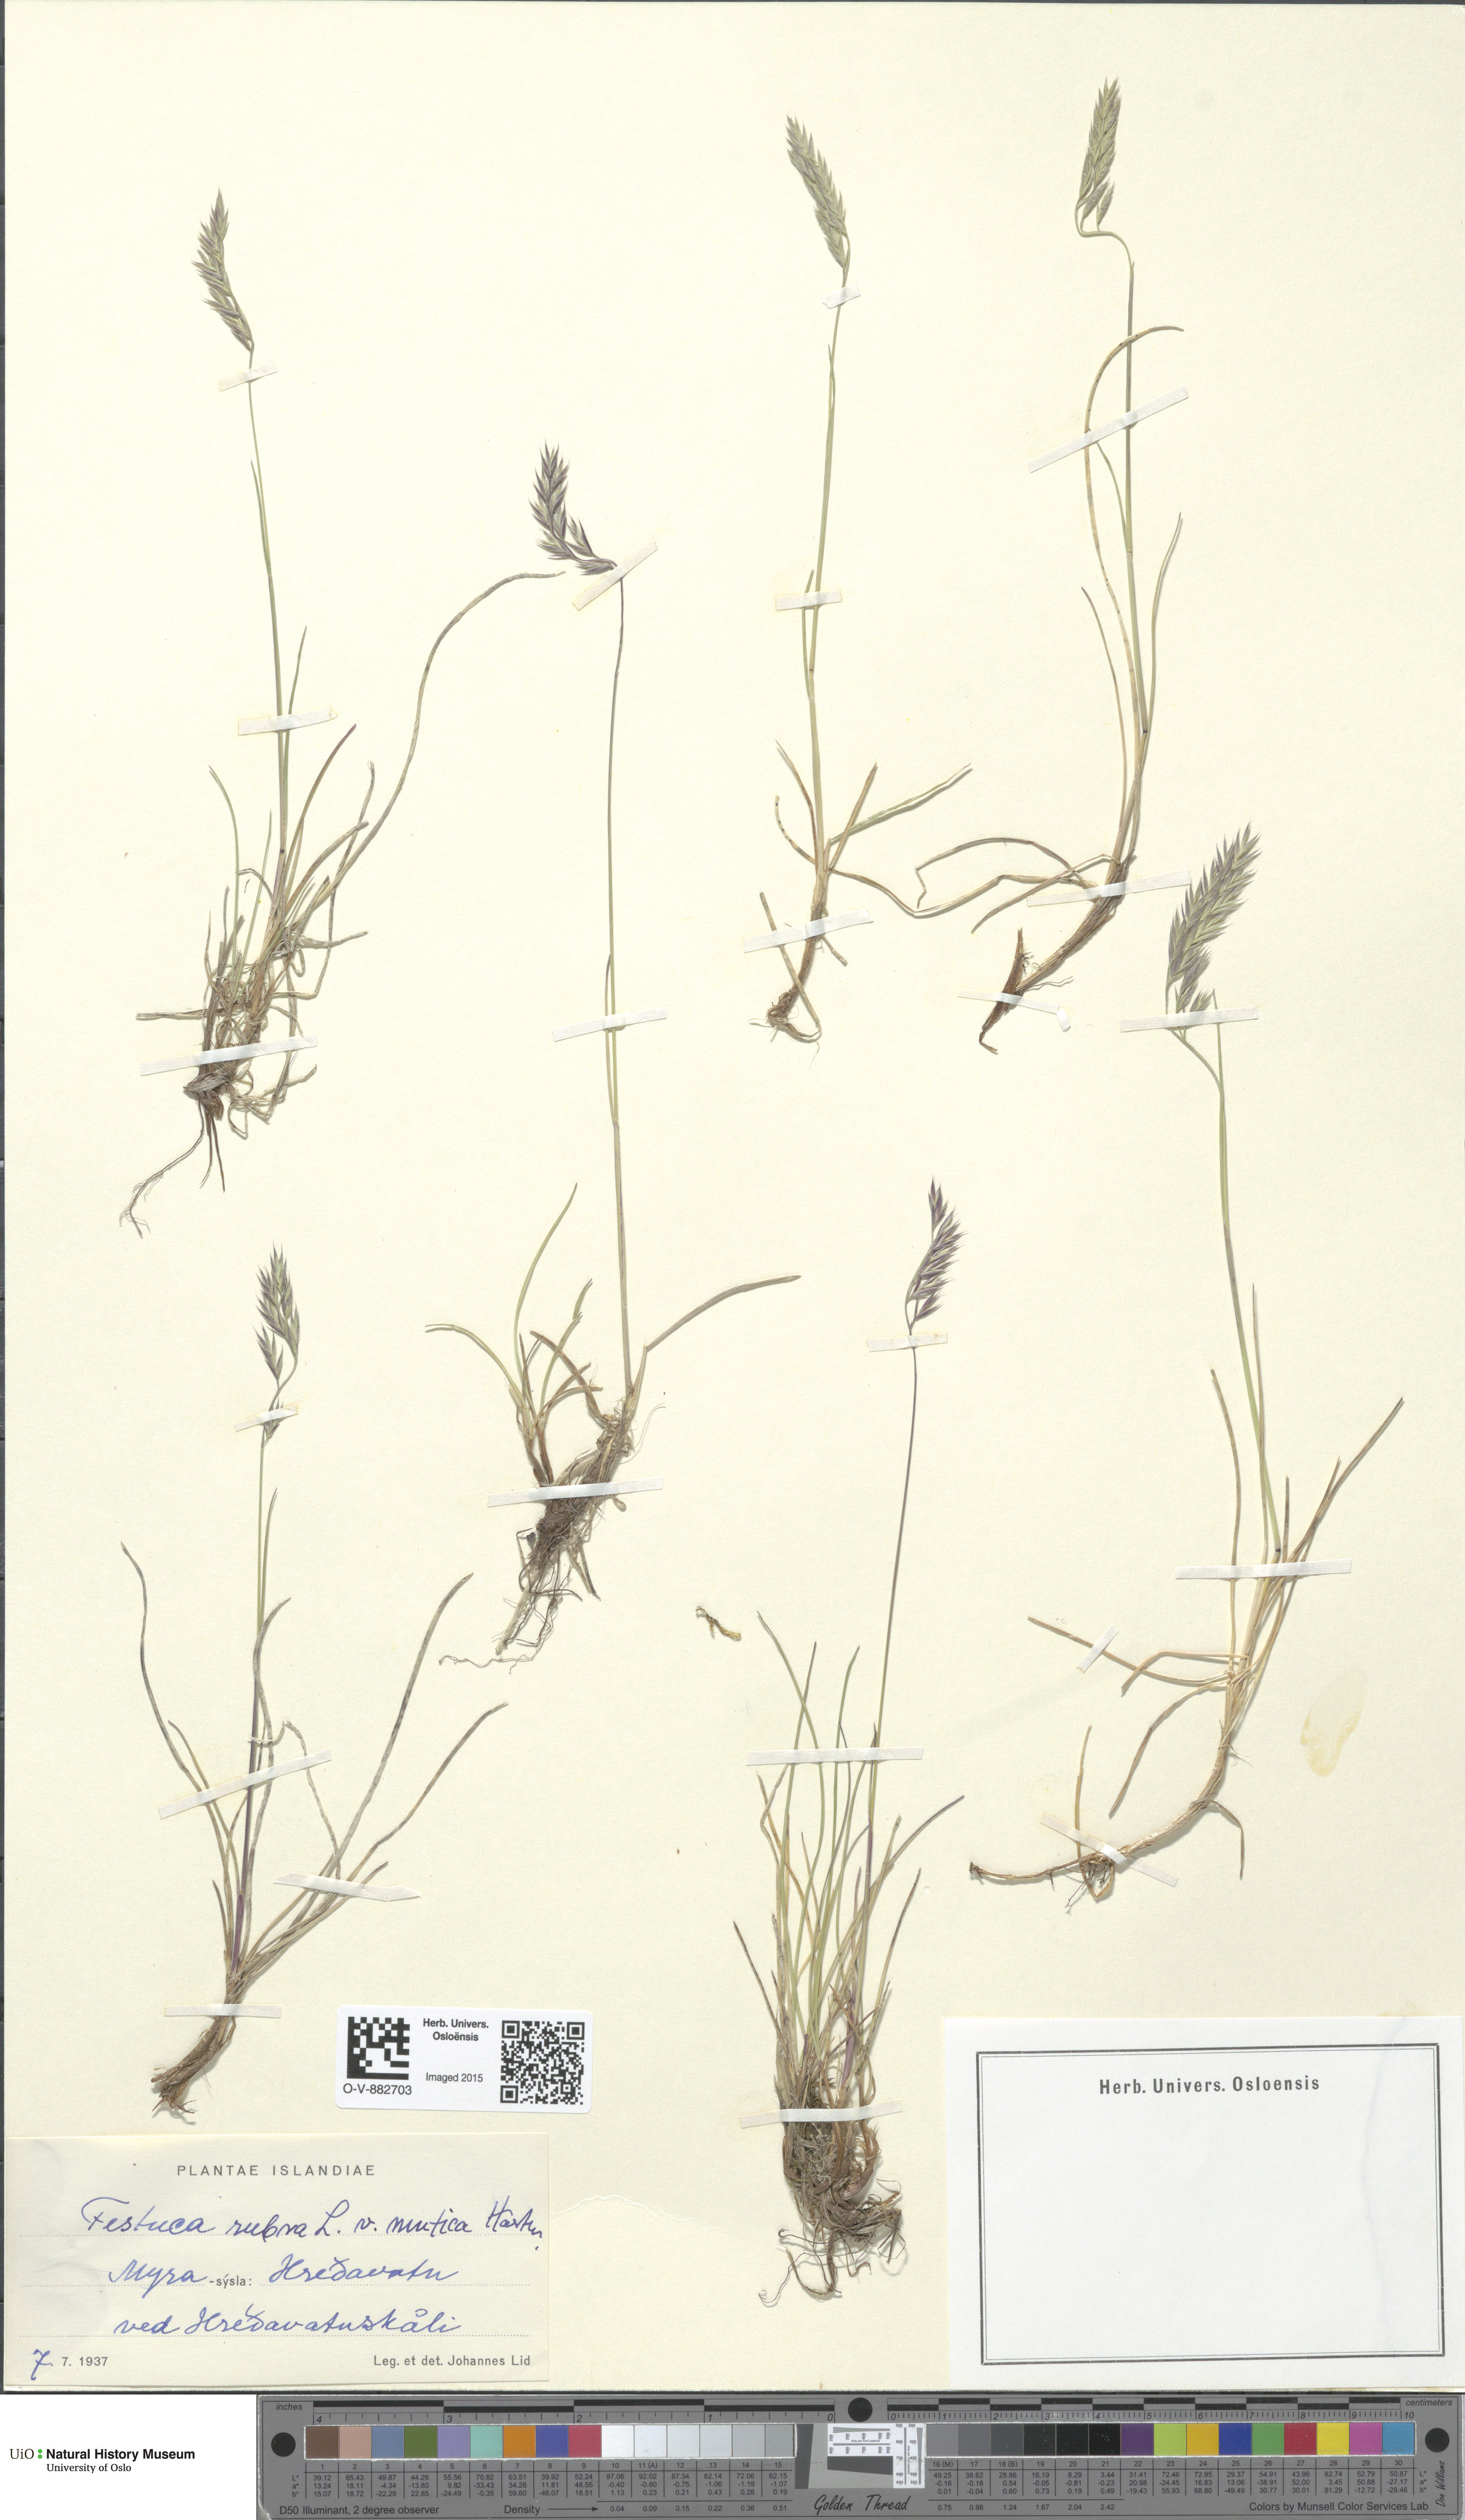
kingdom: Plantae
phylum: Tracheophyta
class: Liliopsida
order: Poales
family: Poaceae
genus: Festuca
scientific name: Festuca richardsonii
